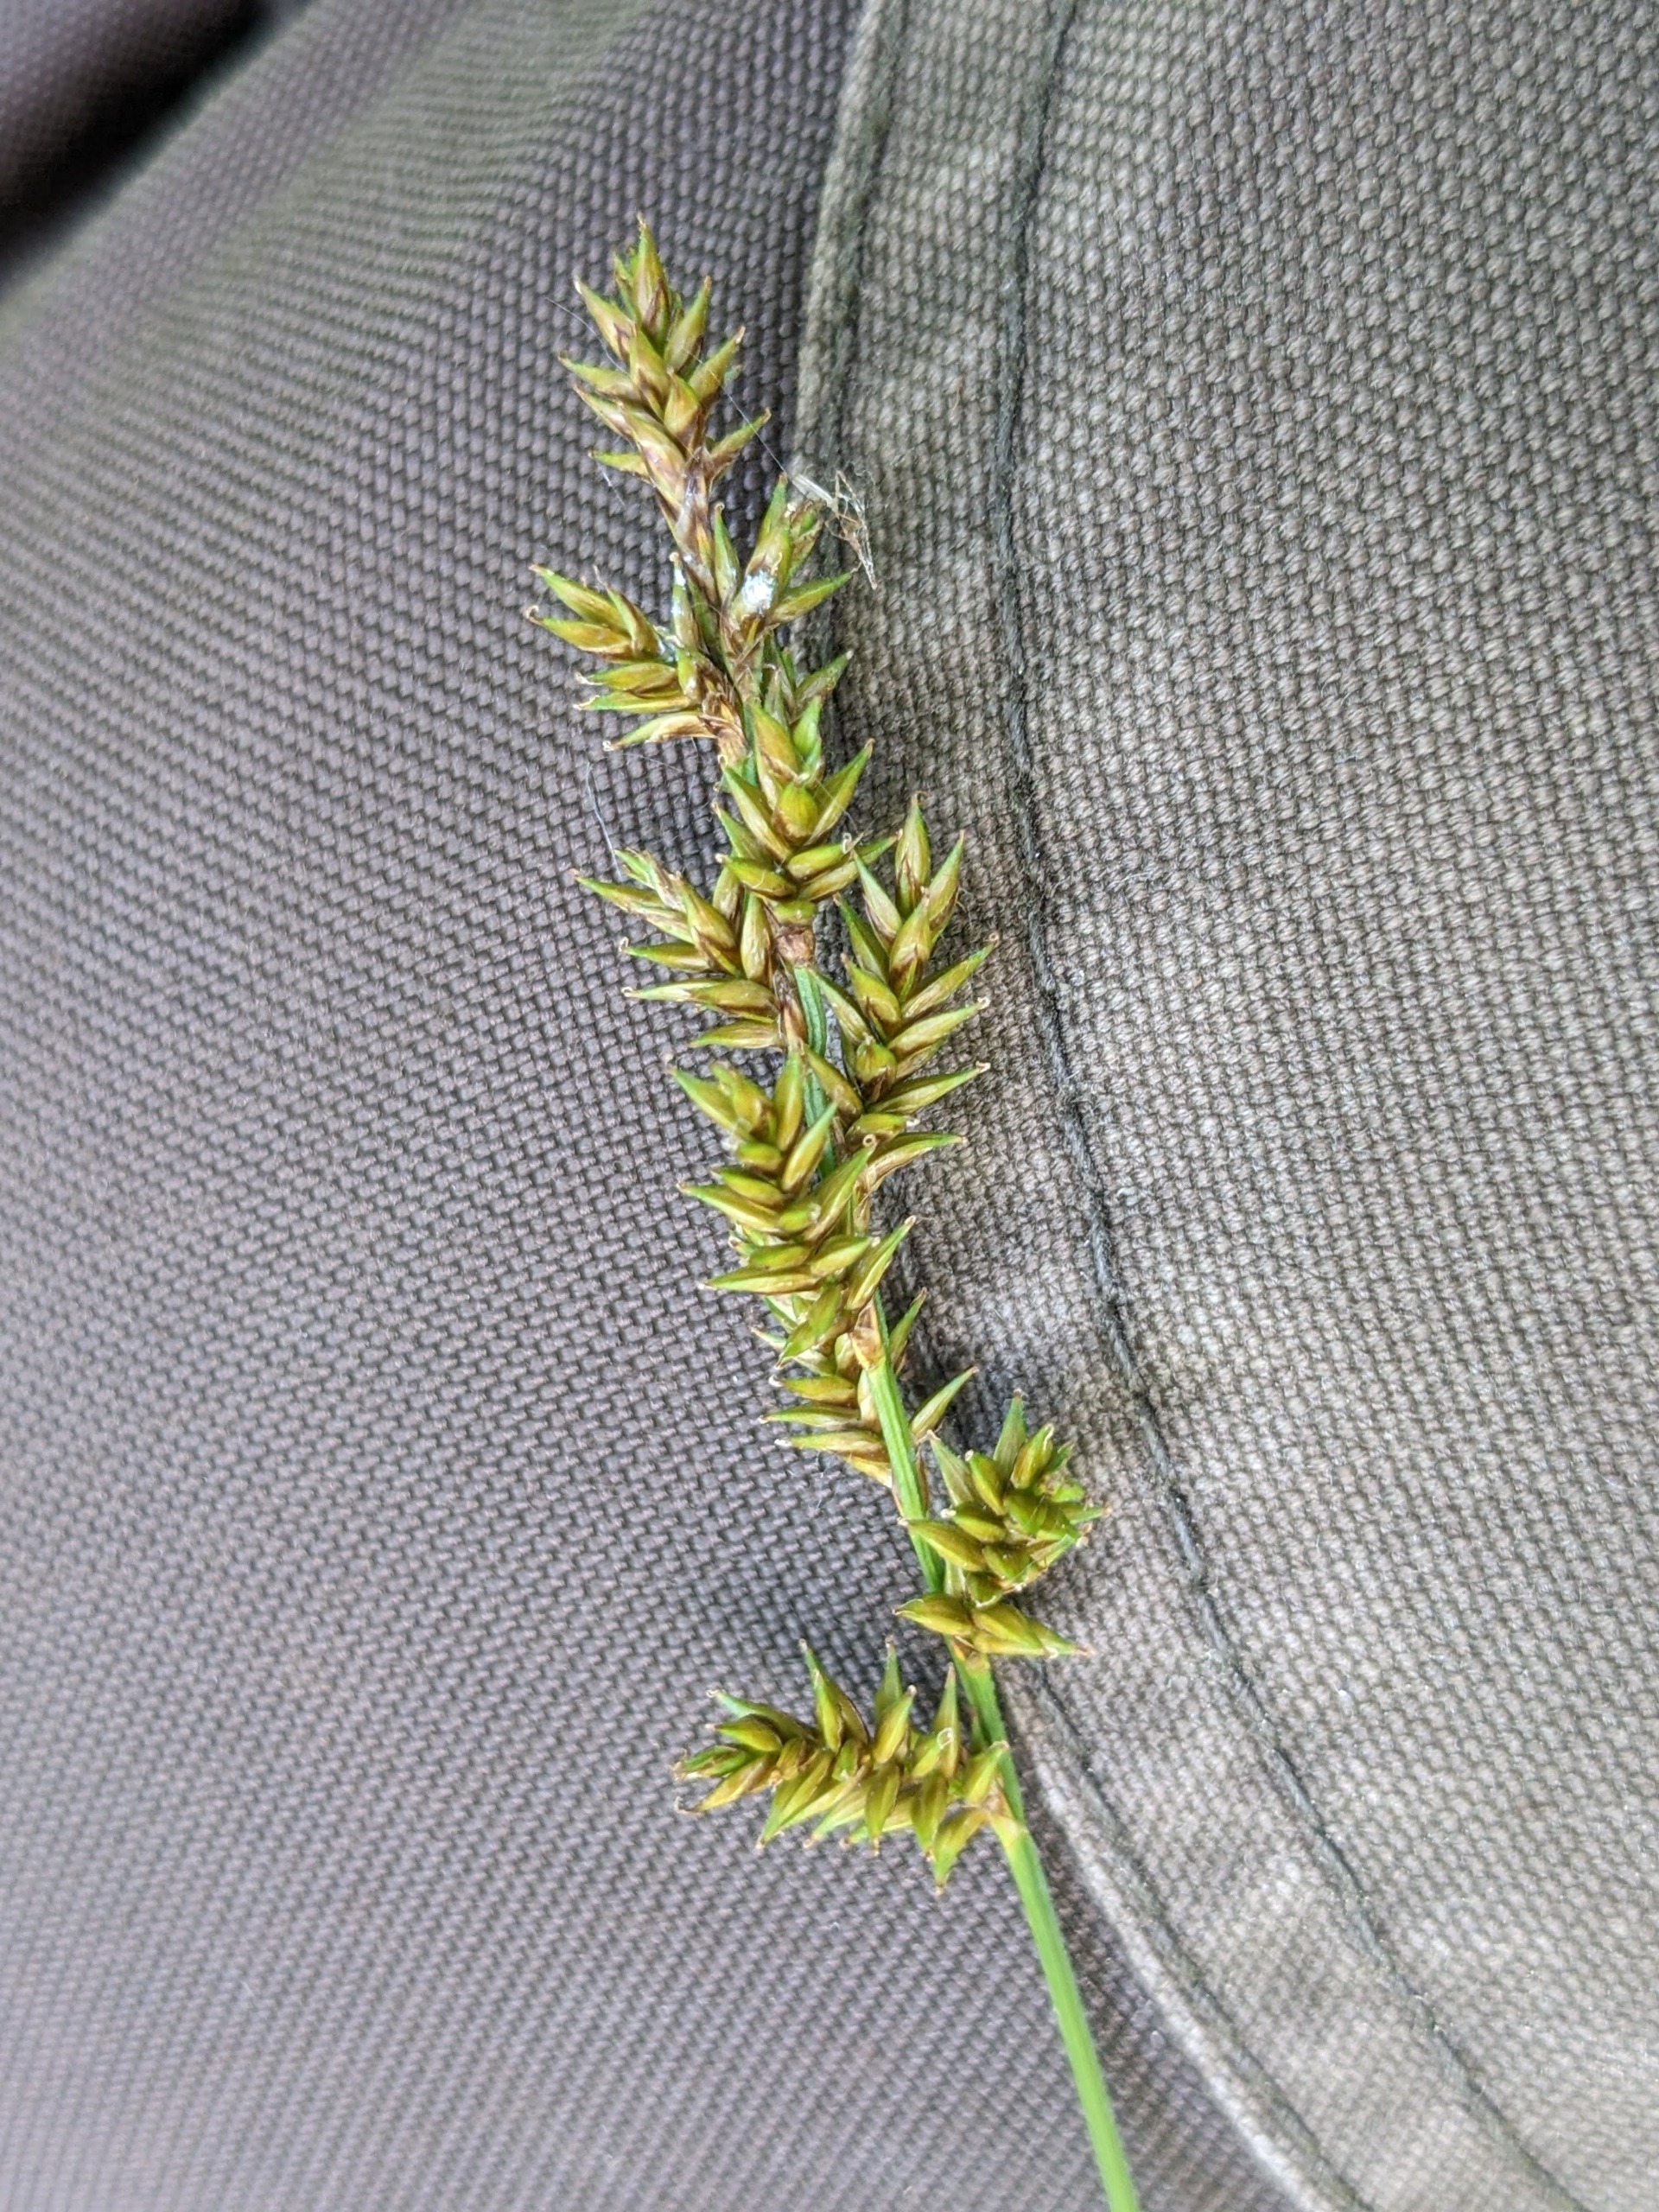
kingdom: Plantae
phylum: Tracheophyta
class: Liliopsida
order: Poales
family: Cyperaceae
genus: Carex
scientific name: Carex elongata
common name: Forlænget star
